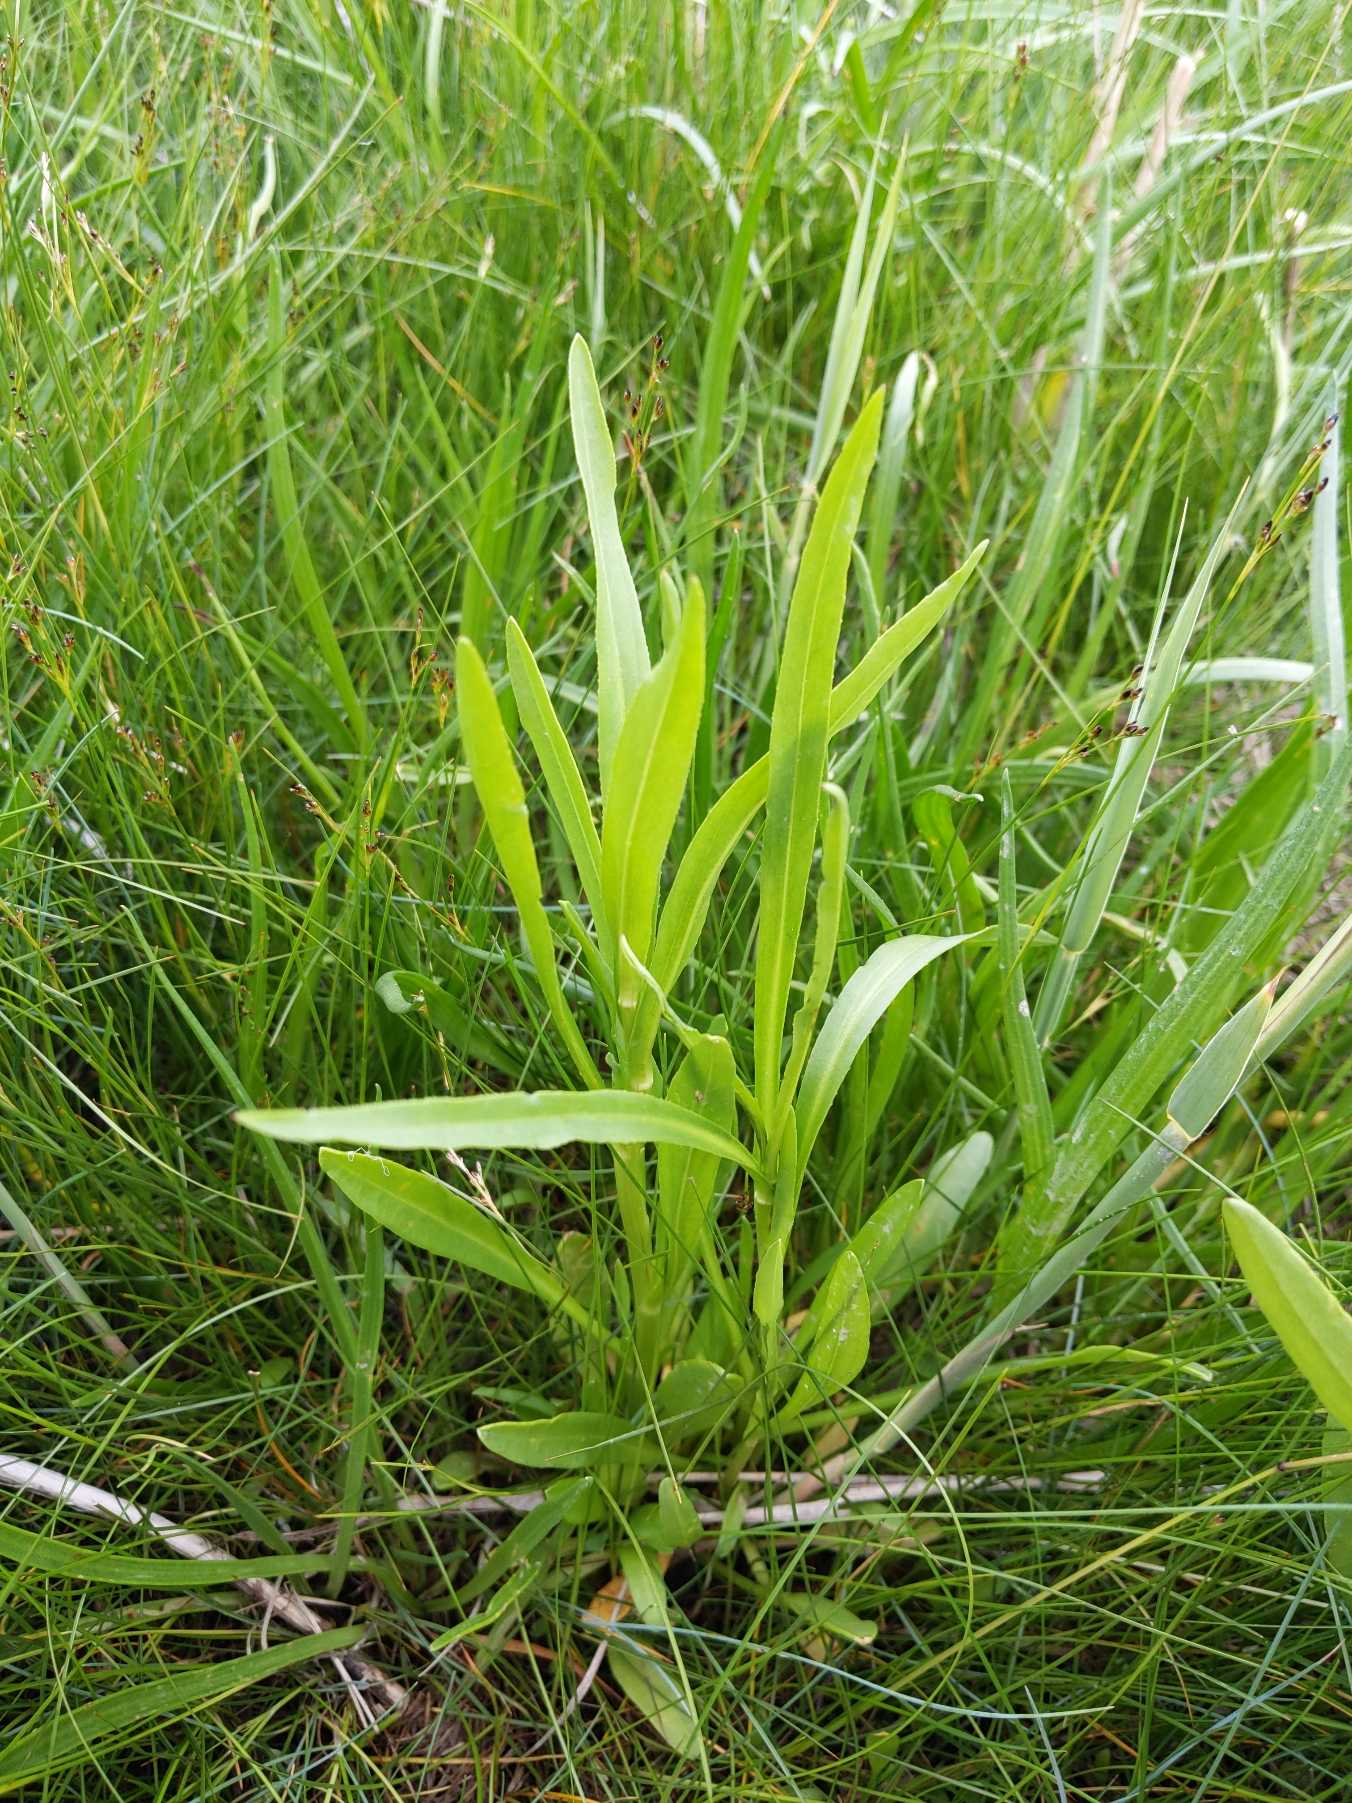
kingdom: Plantae
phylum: Tracheophyta
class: Magnoliopsida
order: Asterales
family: Asteraceae
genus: Tripolium
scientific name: Tripolium pannonicum
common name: Strandasters
